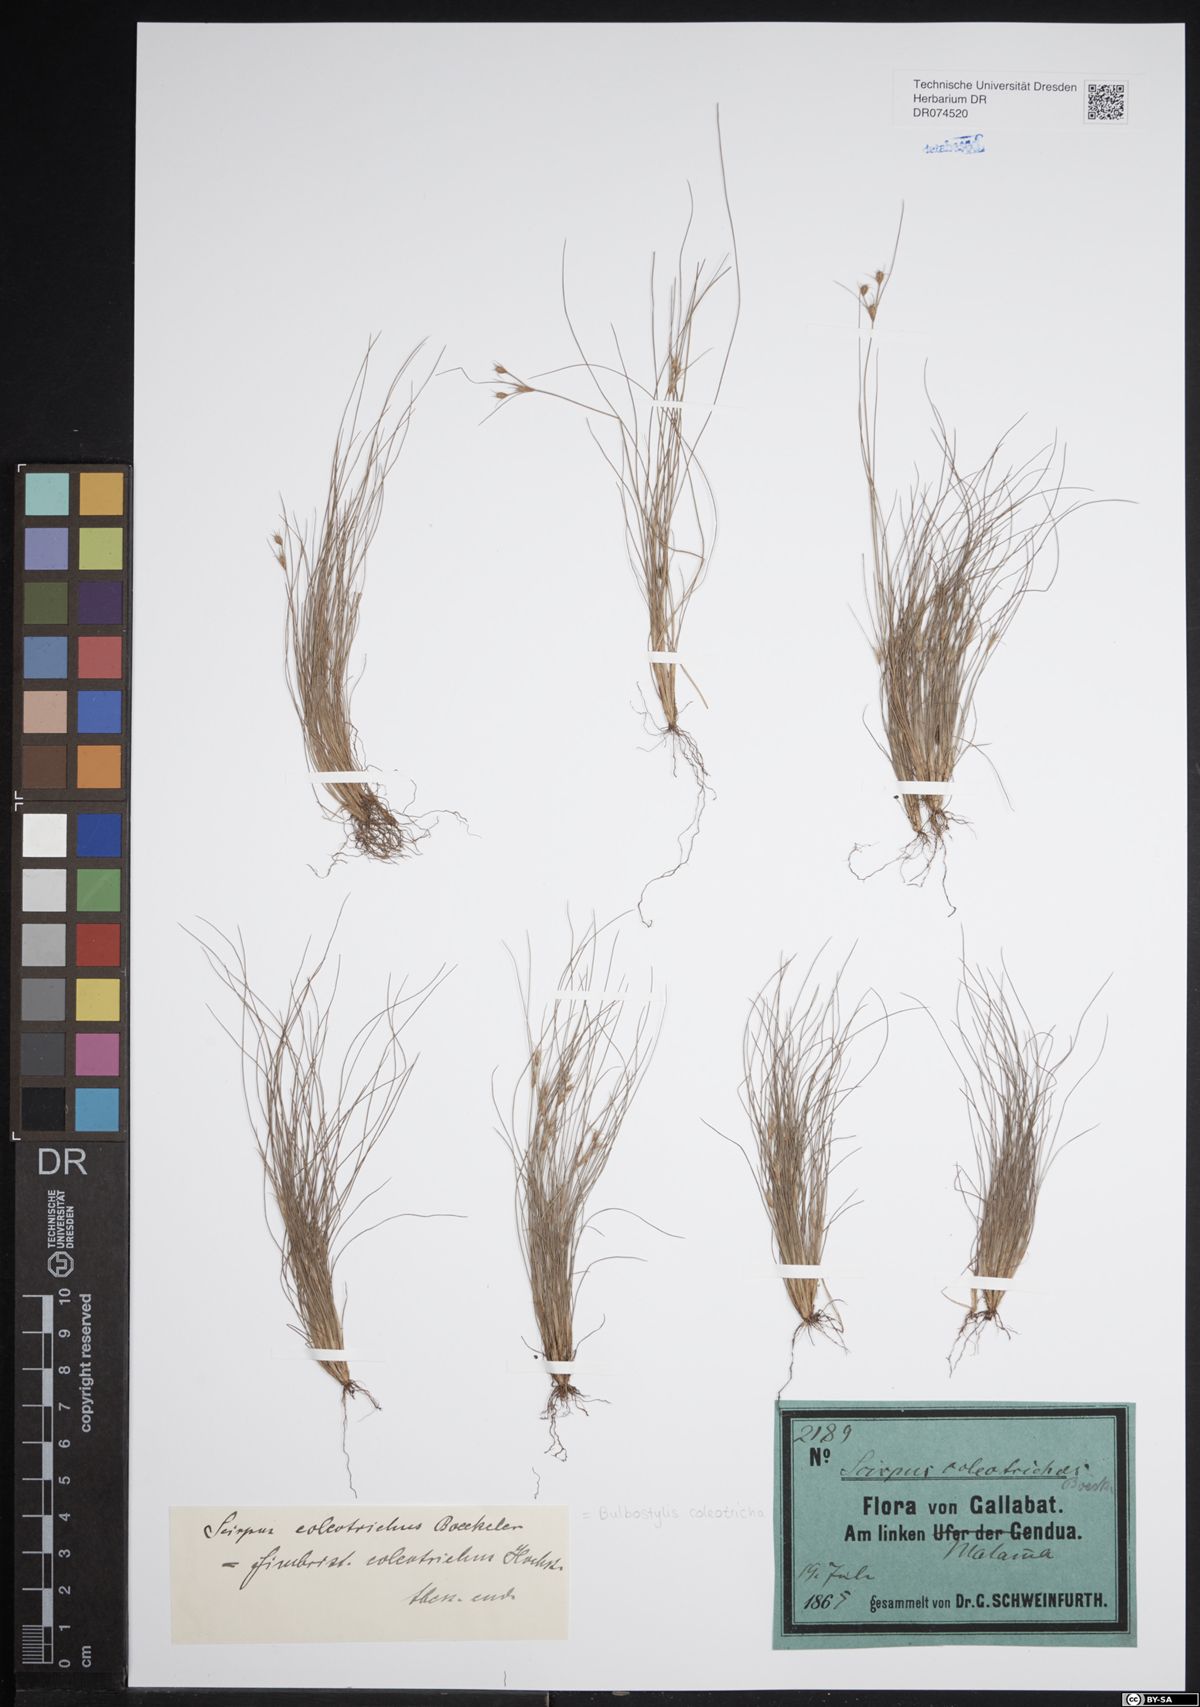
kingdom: Plantae
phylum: Tracheophyta
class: Liliopsida
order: Poales
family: Cyperaceae
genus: Bulbostylis
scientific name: Bulbostylis coleotricha
